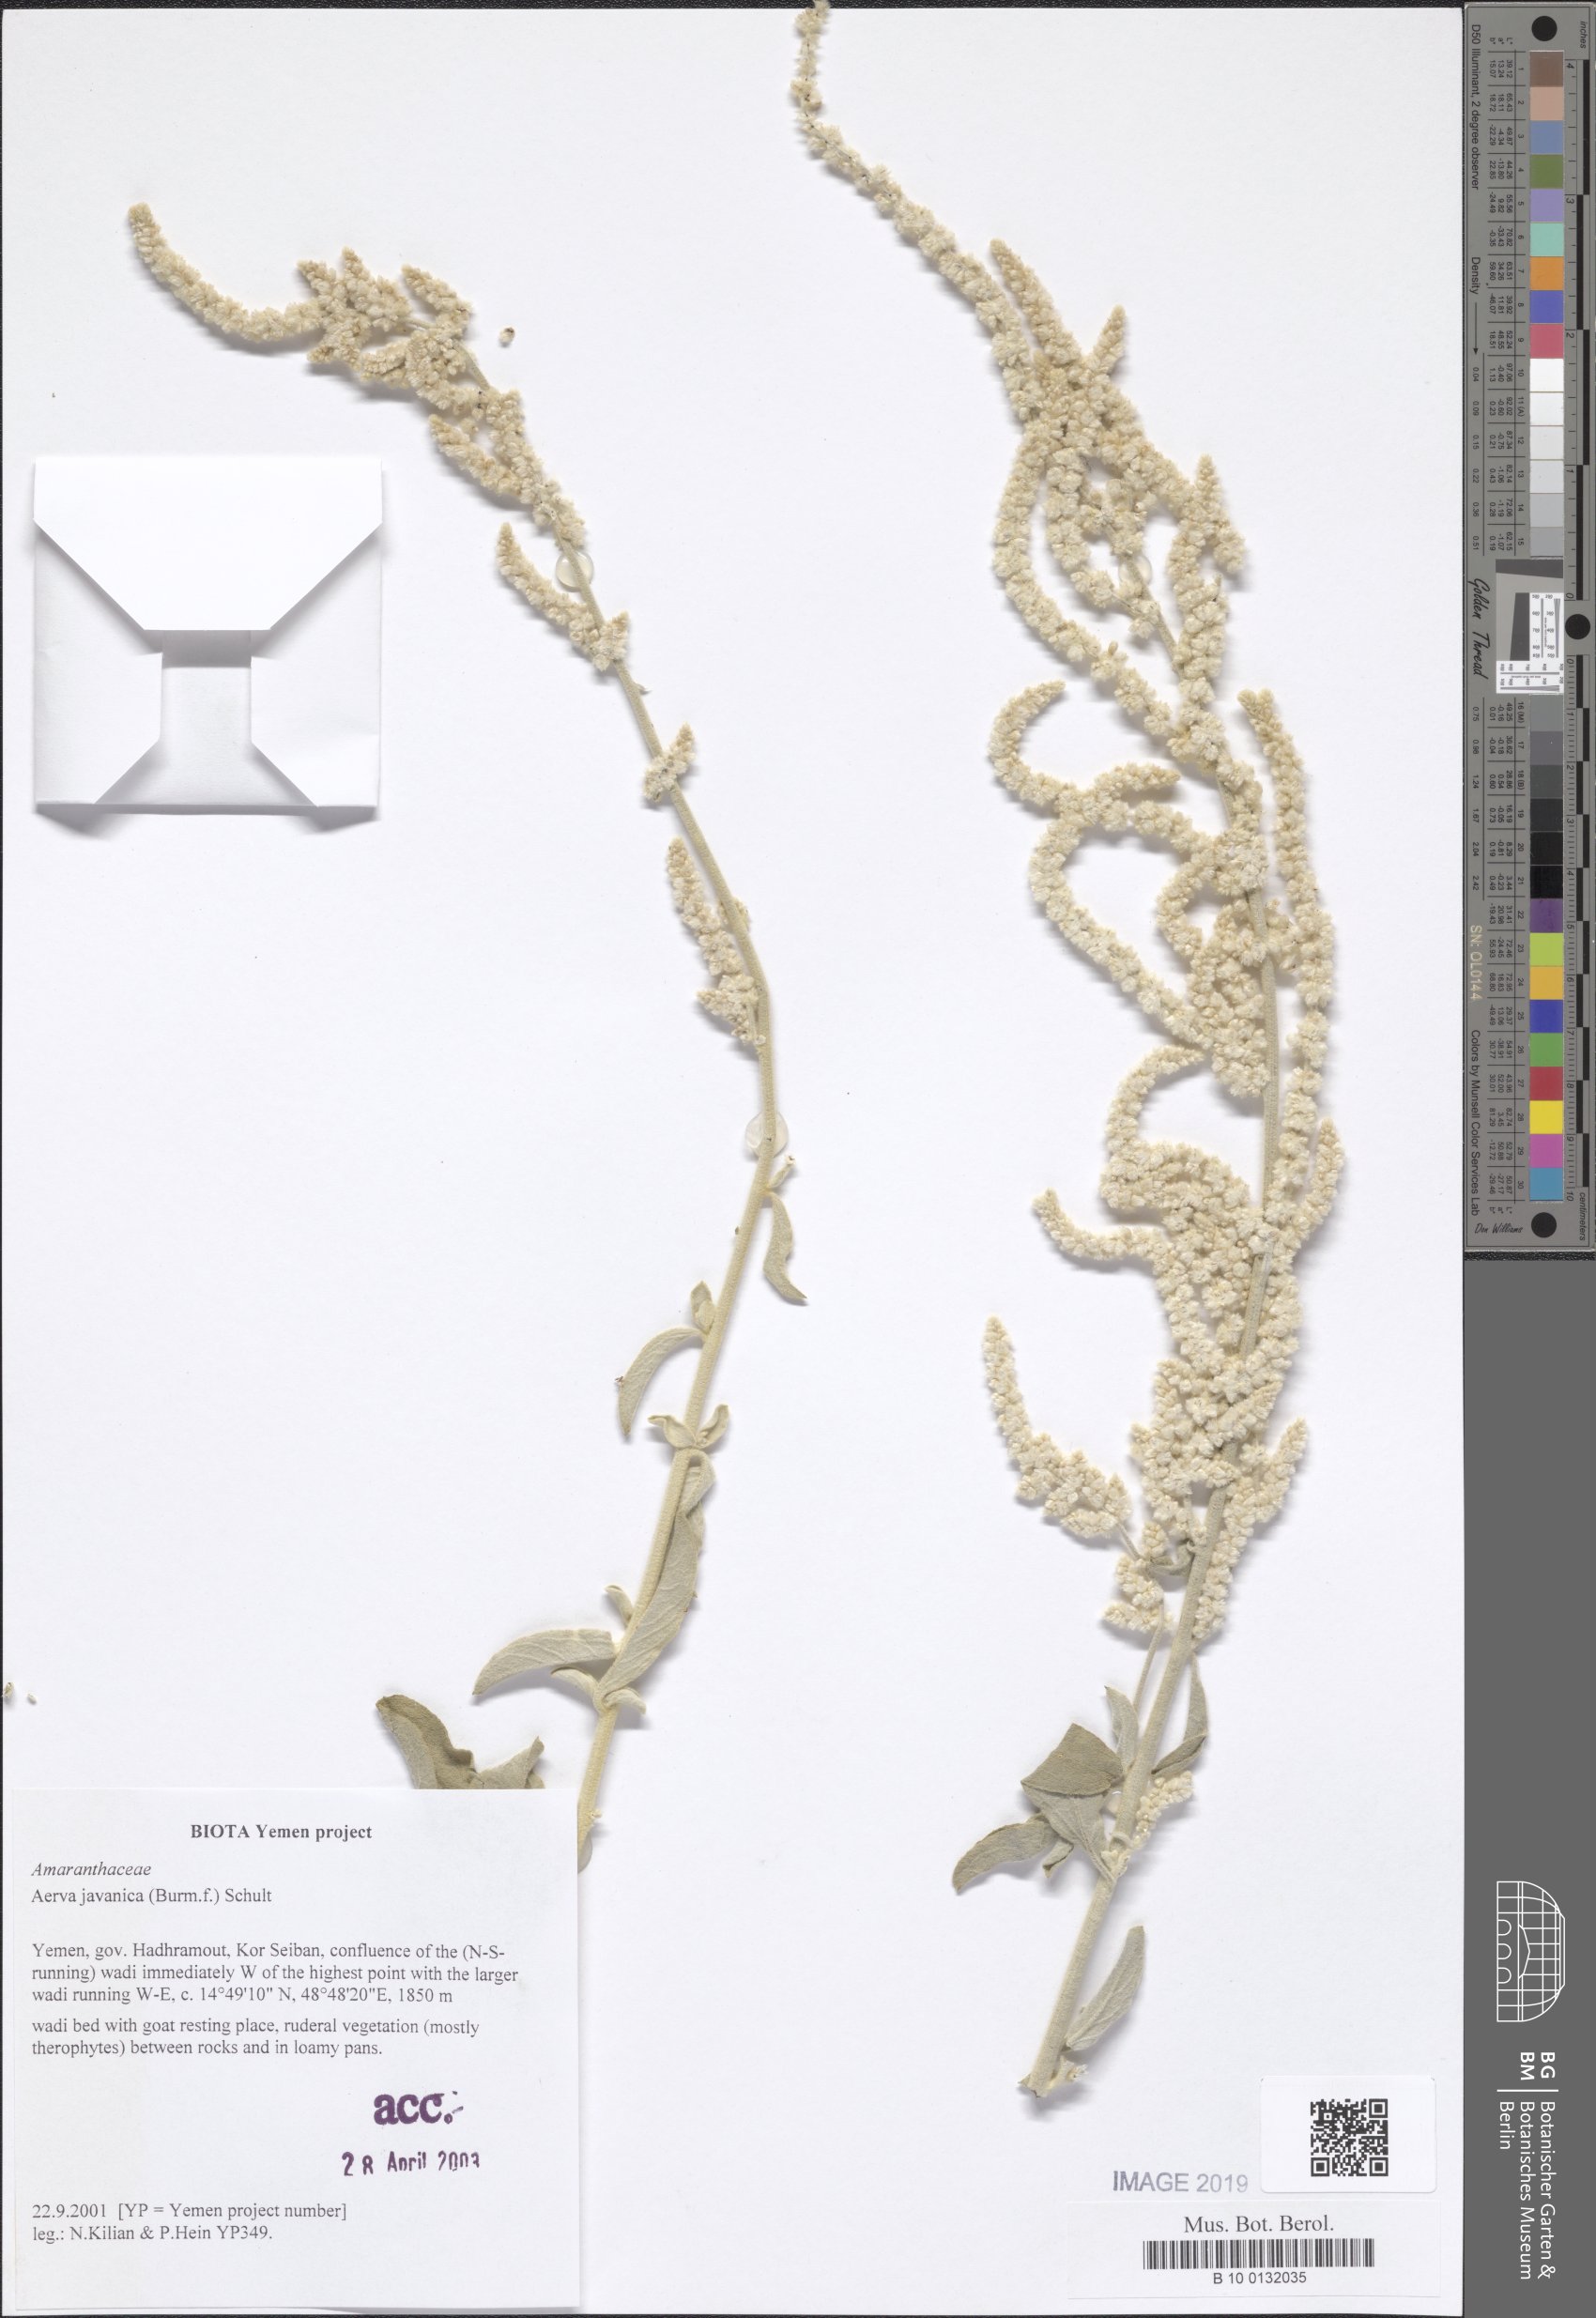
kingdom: Plantae
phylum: Tracheophyta
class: Magnoliopsida
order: Caryophyllales
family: Amaranthaceae
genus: Aerva
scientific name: Aerva javanica
